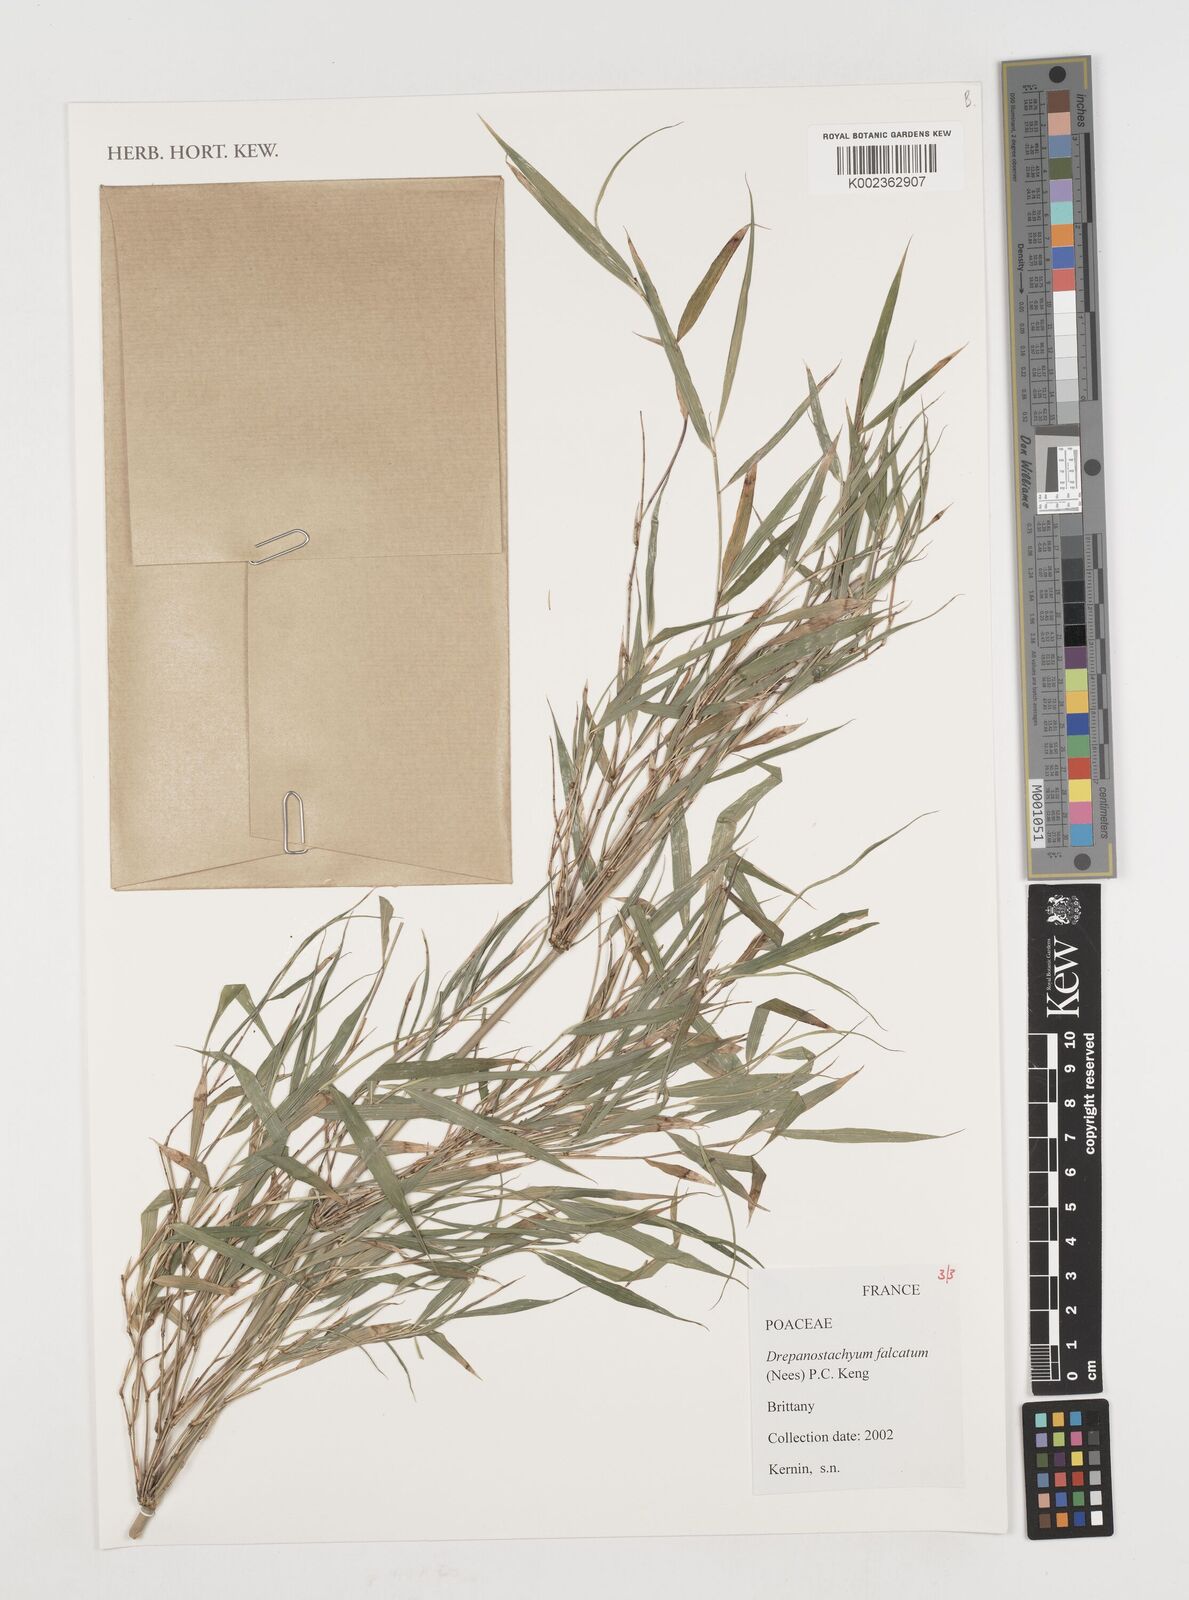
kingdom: Plantae
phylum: Tracheophyta
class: Liliopsida
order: Poales
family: Poaceae
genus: Drepanostachyum
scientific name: Drepanostachyum falcatum
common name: Himalayan bamboo
